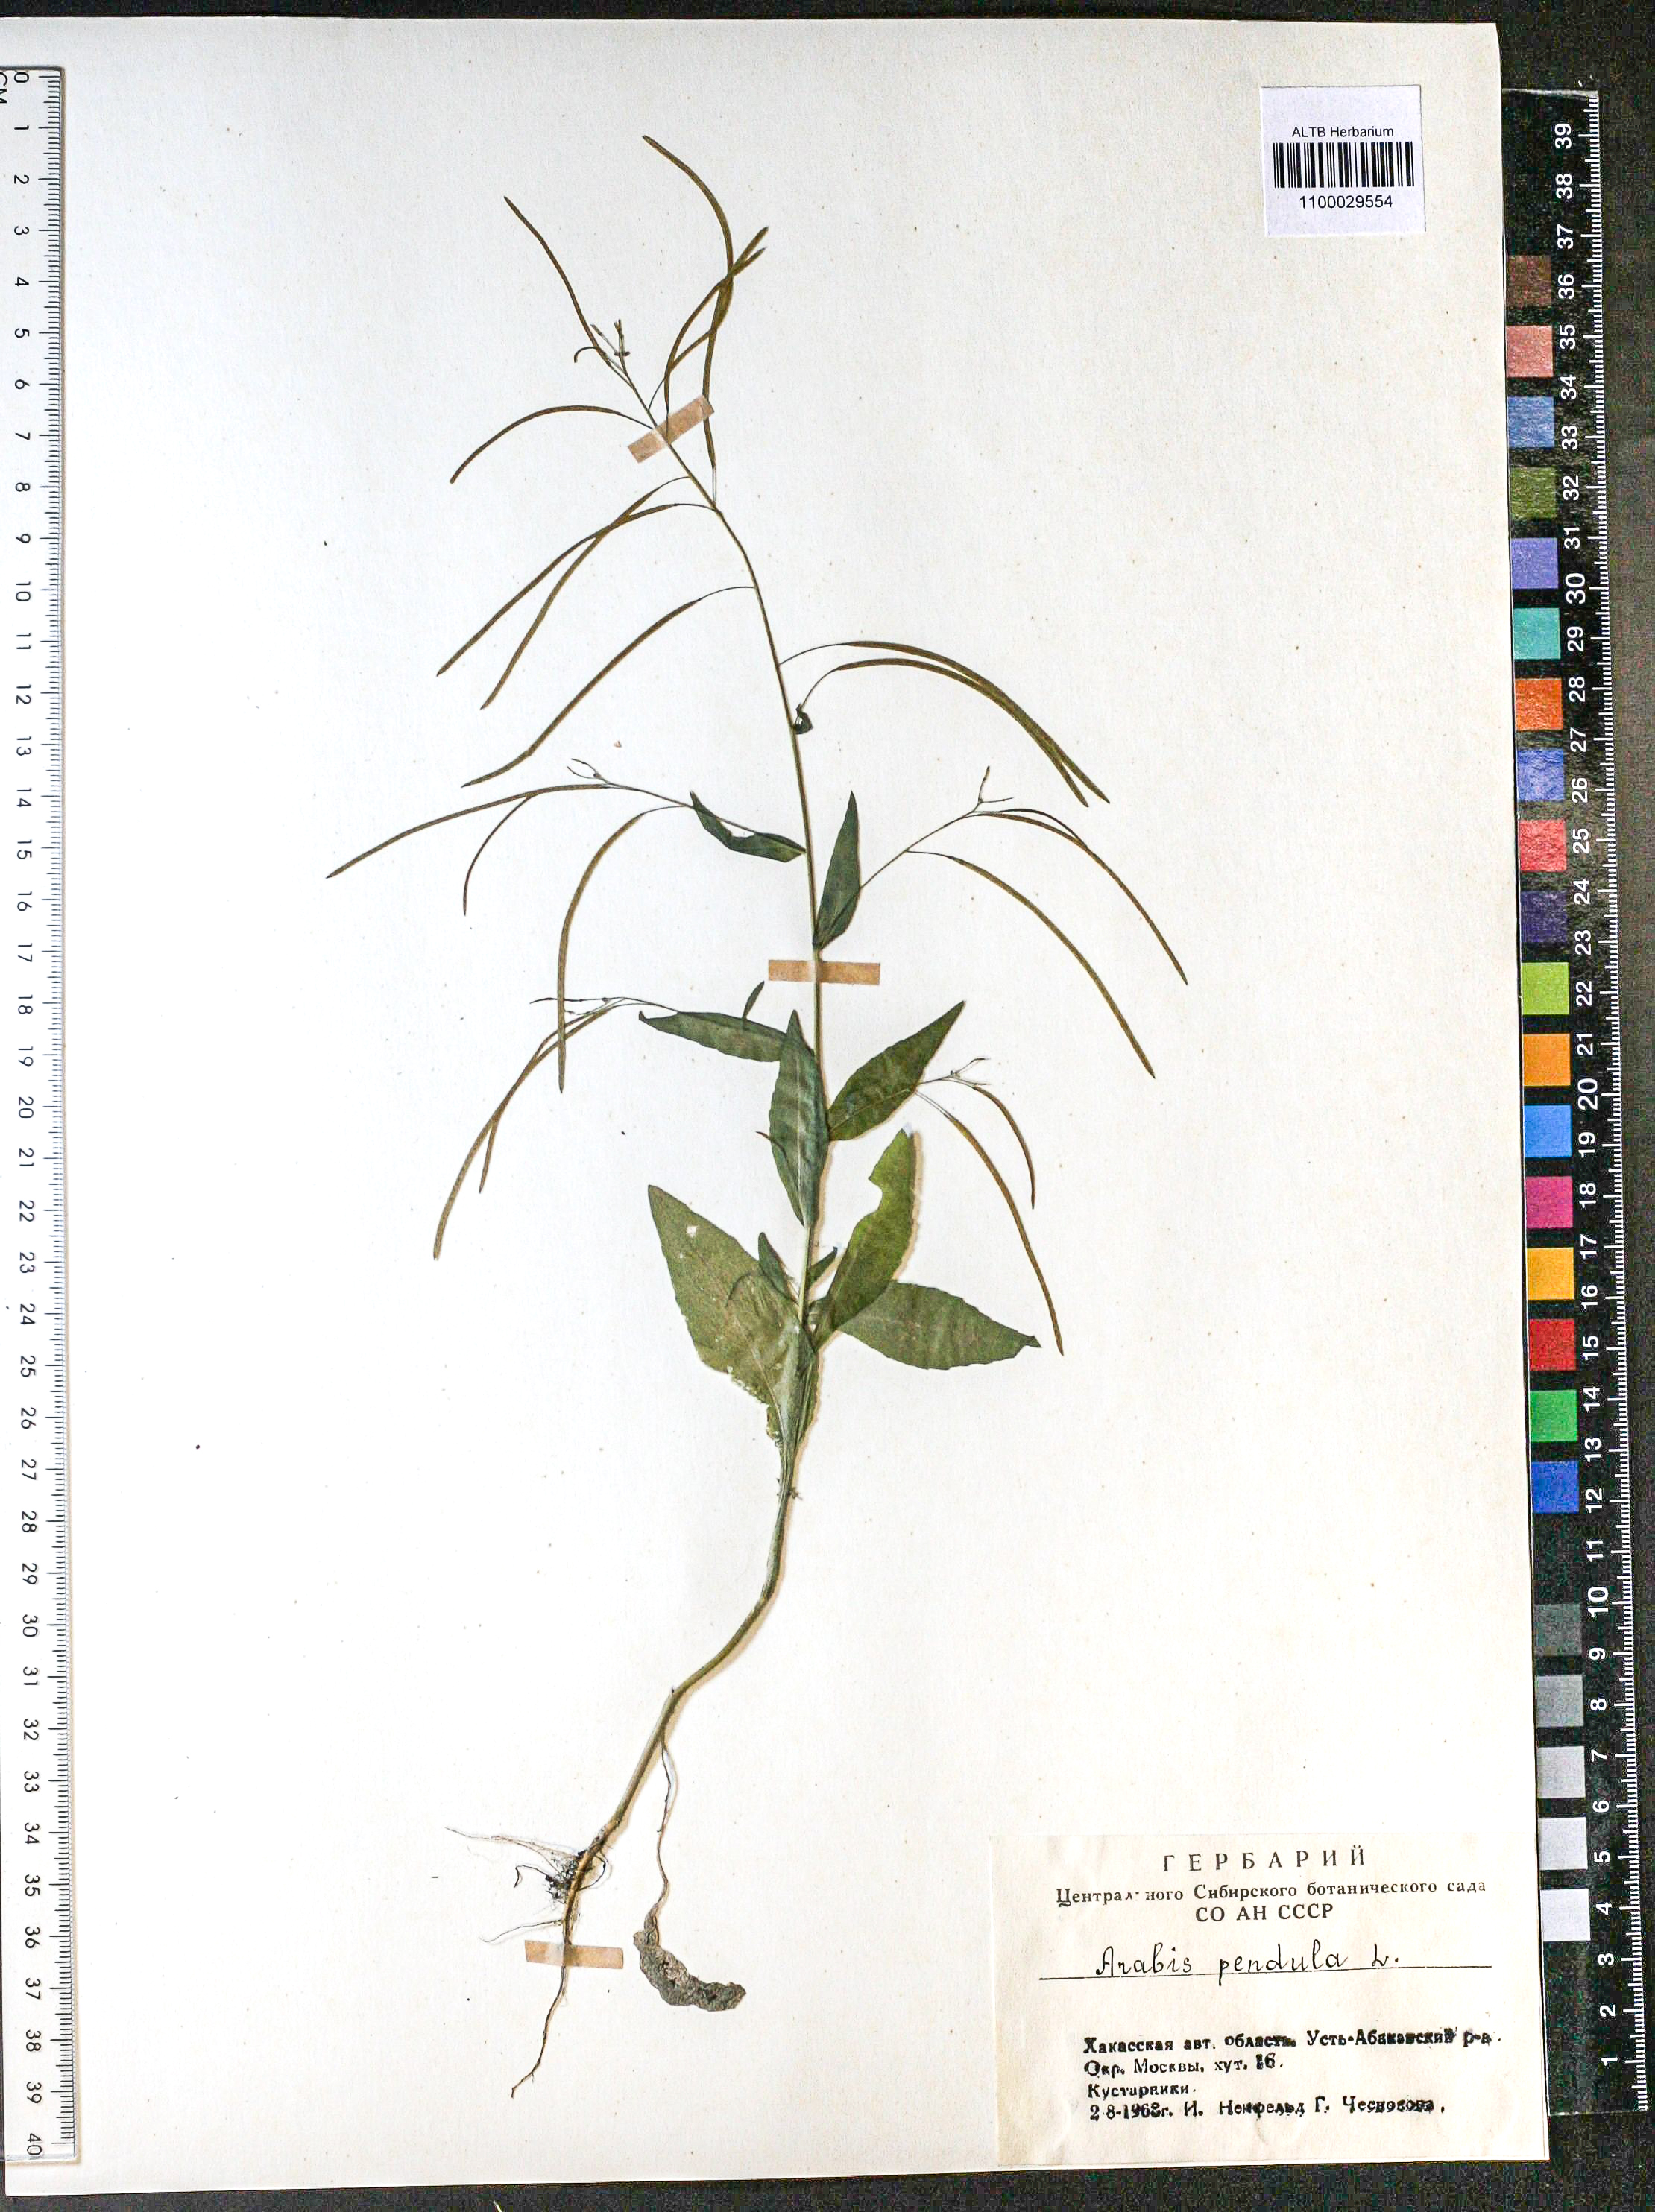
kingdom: Plantae
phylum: Tracheophyta
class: Magnoliopsida
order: Brassicales
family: Brassicaceae
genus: Catolobus
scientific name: Catolobus pendulus
